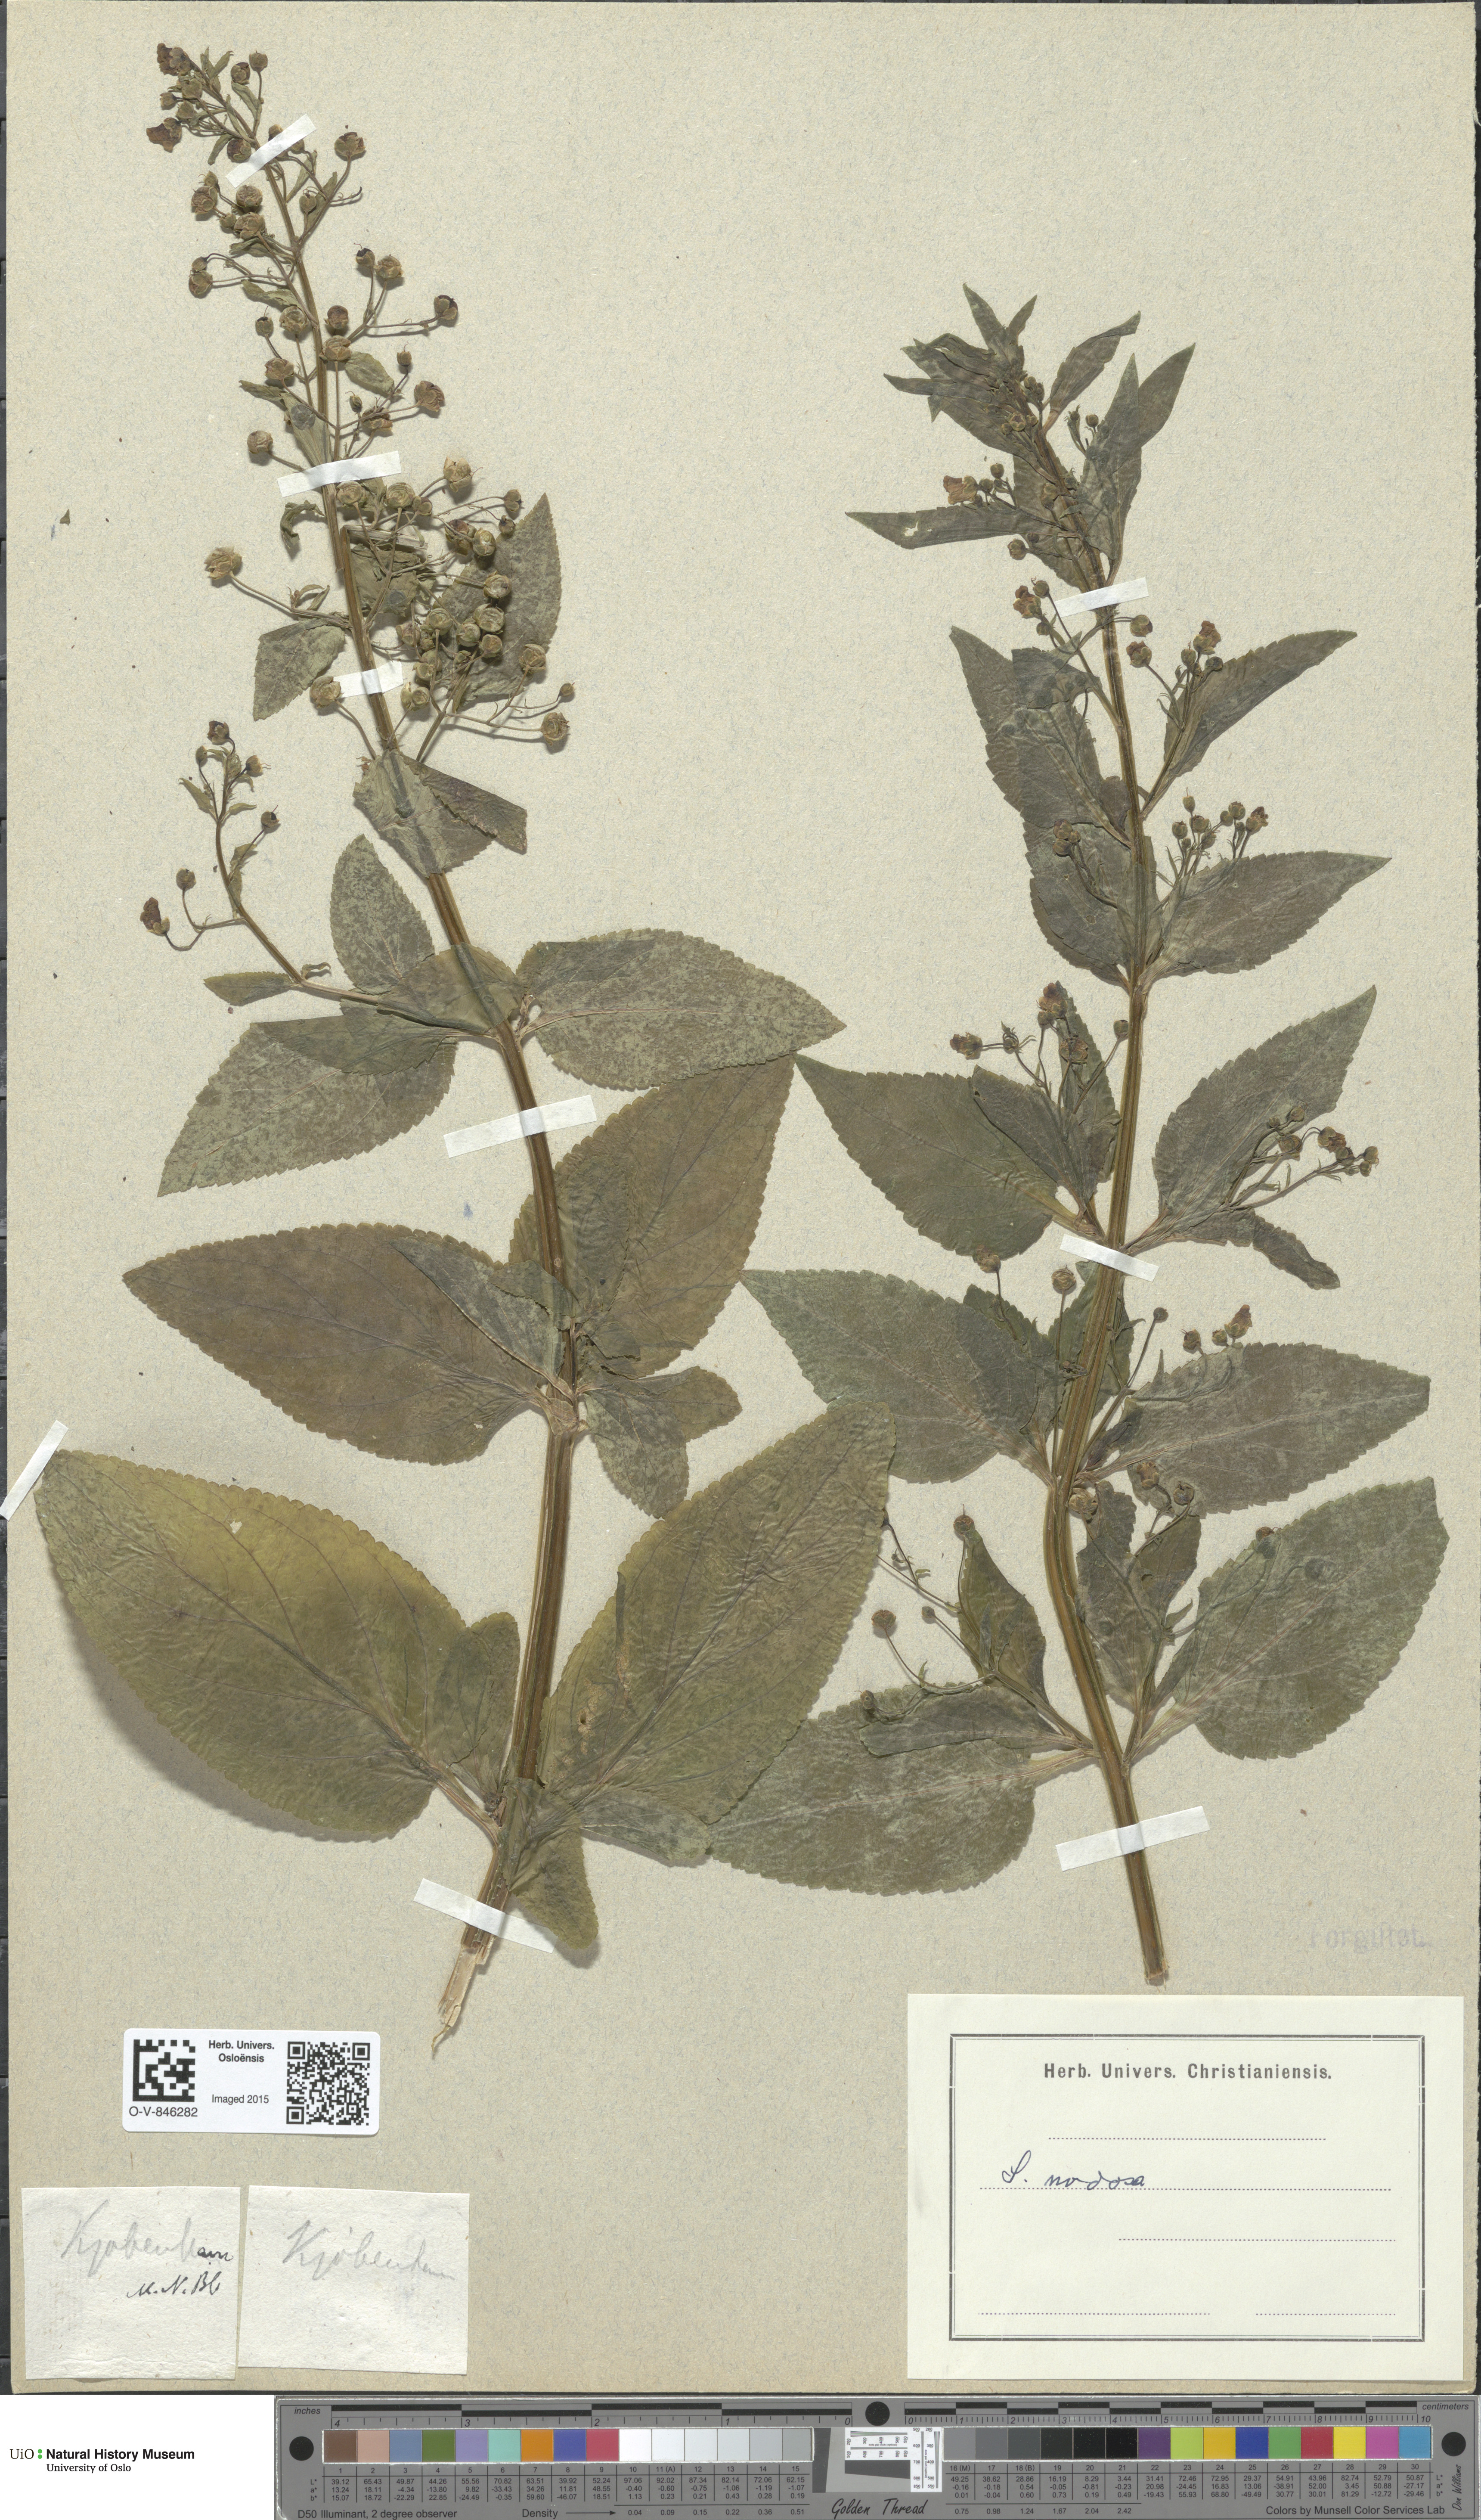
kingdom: Plantae
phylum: Tracheophyta
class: Magnoliopsida
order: Lamiales
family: Scrophulariaceae
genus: Scrophularia
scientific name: Scrophularia nodosa
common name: Common figwort
